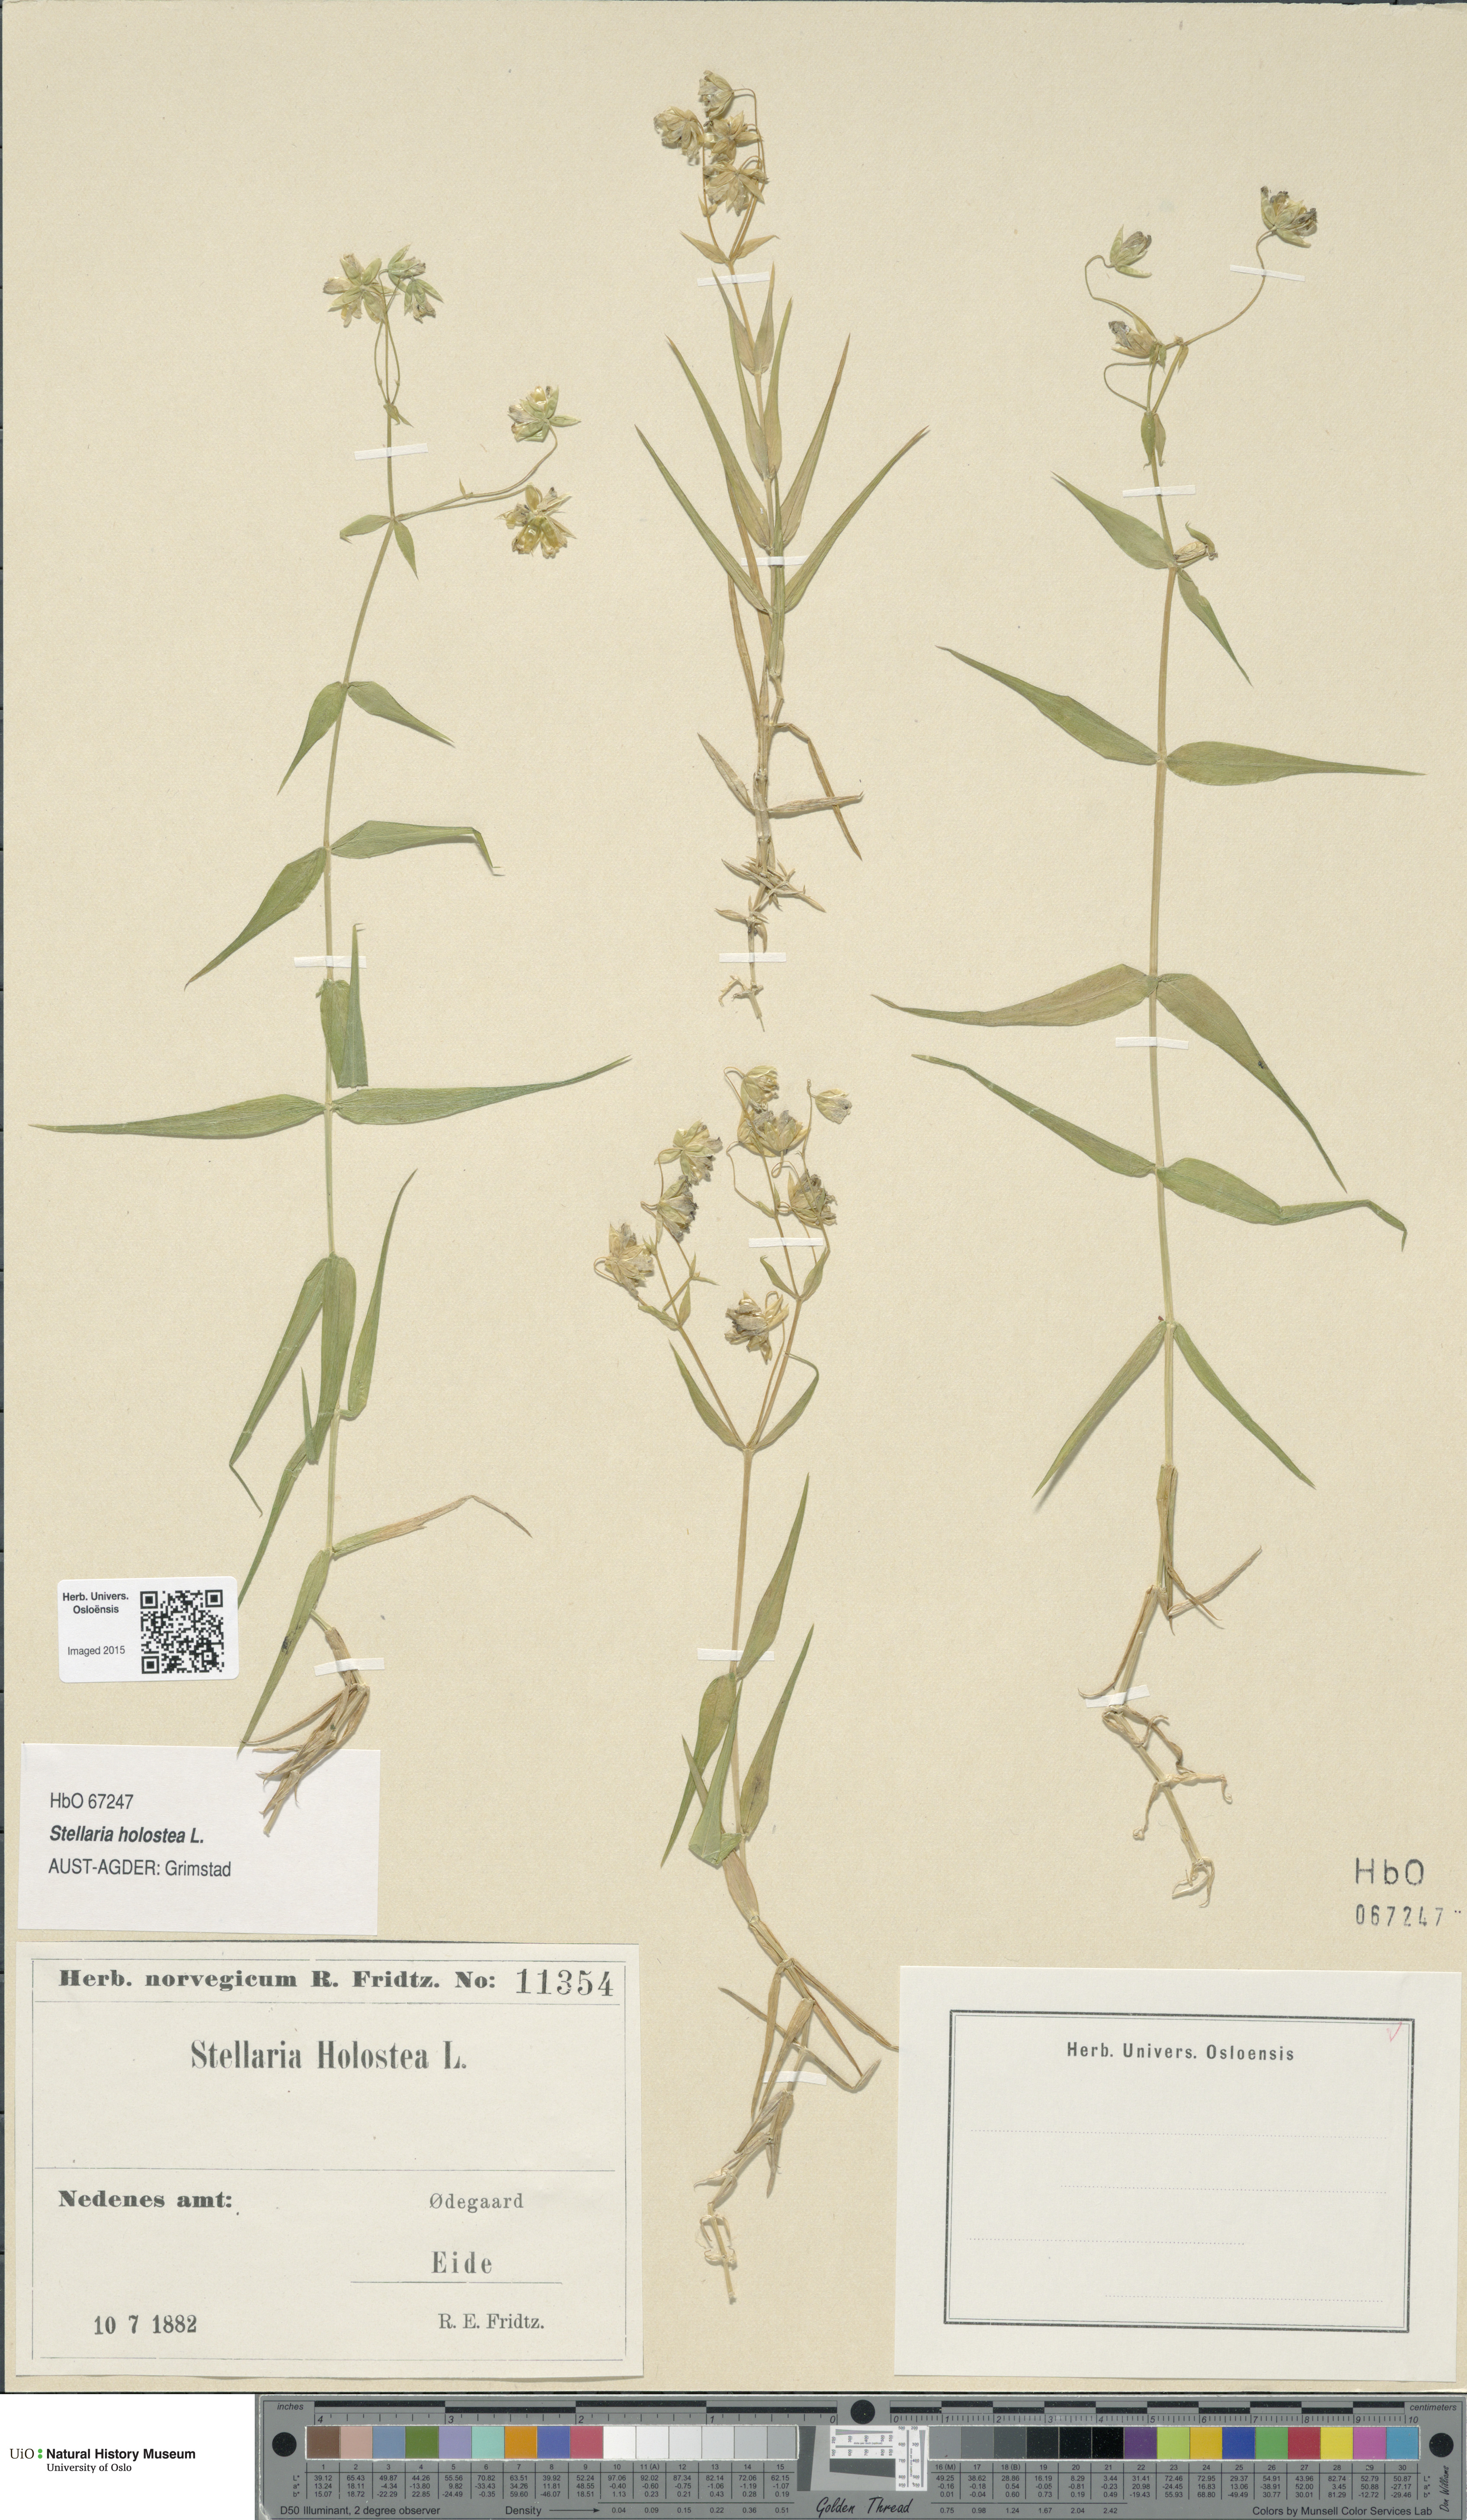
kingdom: Plantae
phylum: Tracheophyta
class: Magnoliopsida
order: Caryophyllales
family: Caryophyllaceae
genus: Rabelera
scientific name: Rabelera holostea
